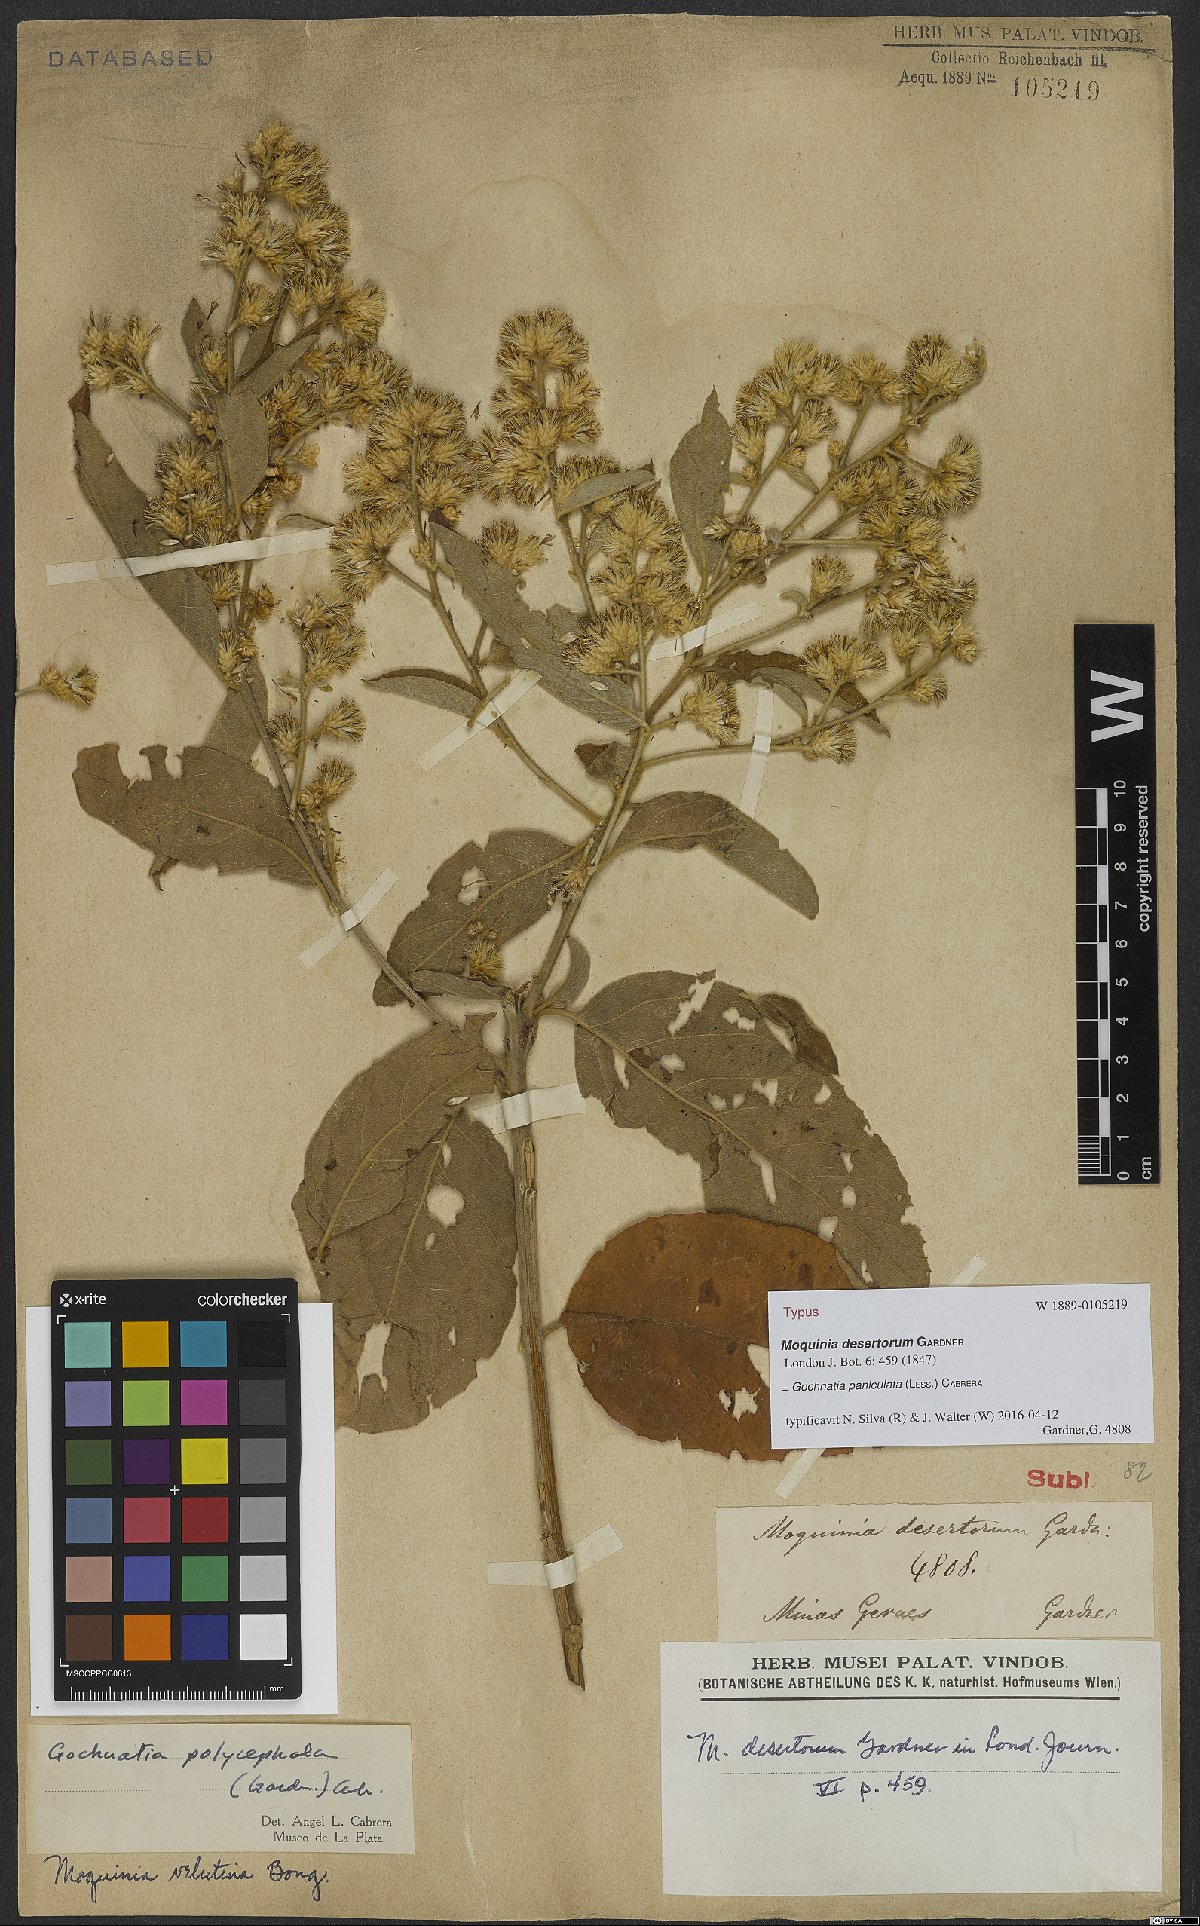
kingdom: Plantae
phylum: Tracheophyta
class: Magnoliopsida
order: Asterales
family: Asteraceae
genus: Moquiniastrum
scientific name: Moquiniastrum paniculatum
